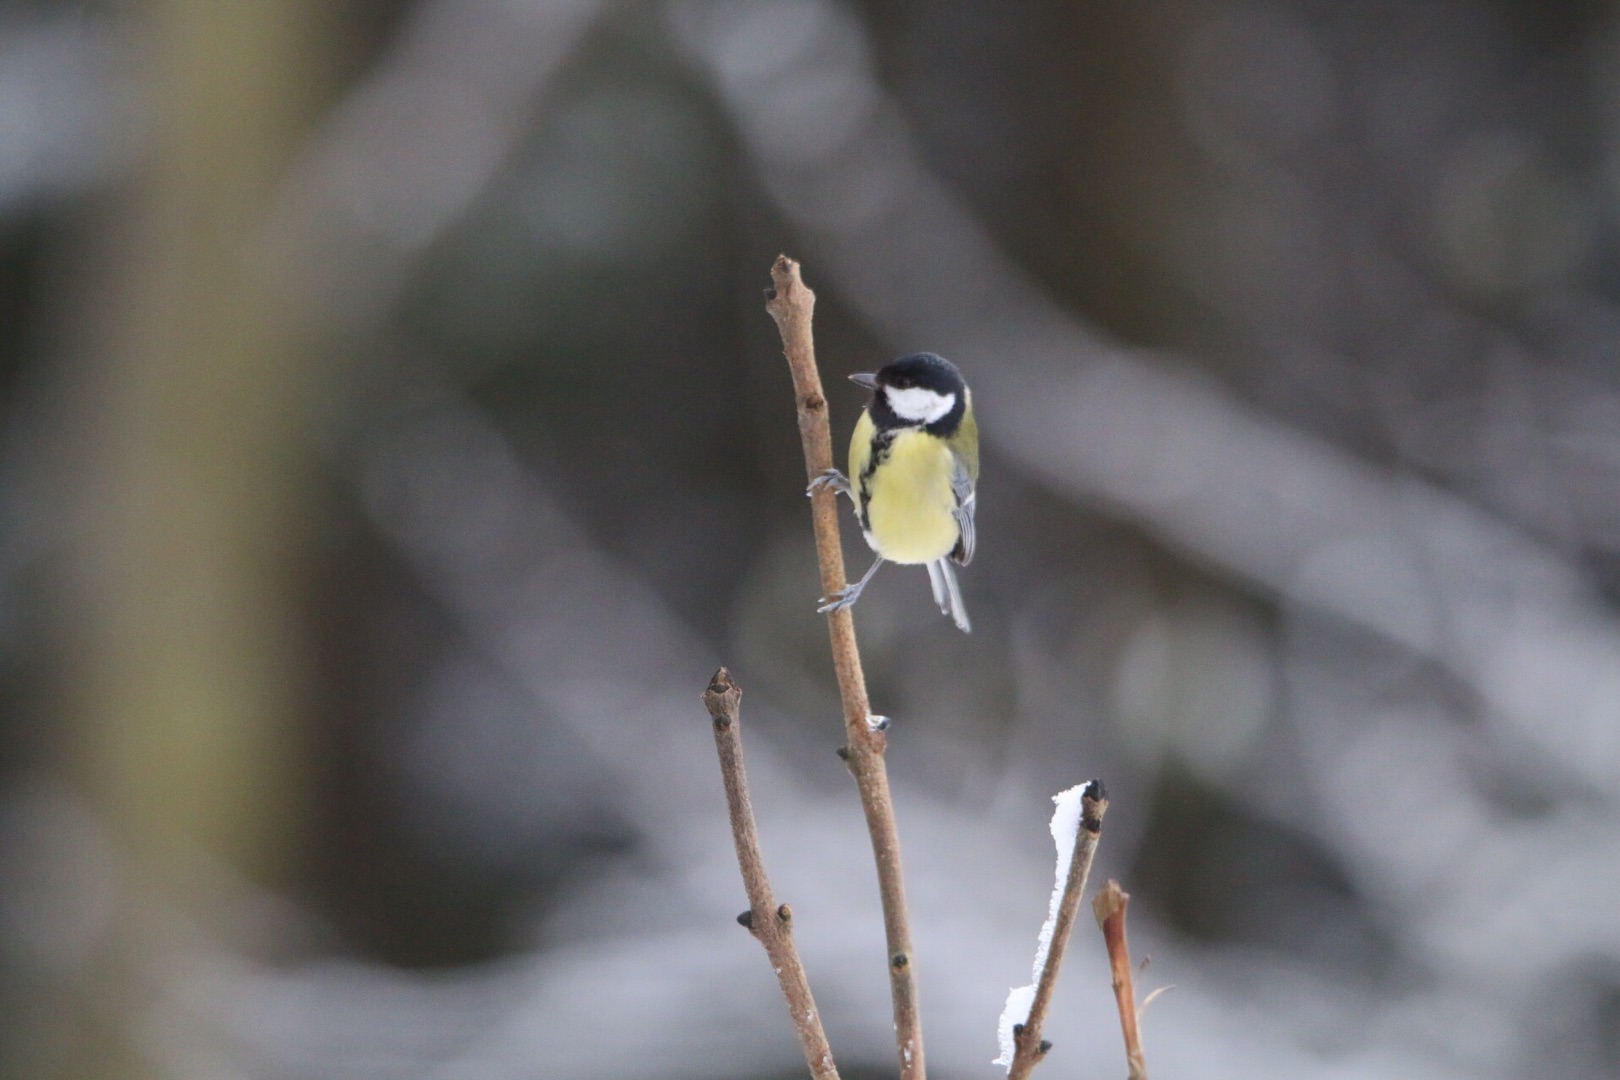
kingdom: Animalia
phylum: Chordata
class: Aves
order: Passeriformes
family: Paridae
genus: Parus
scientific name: Parus major
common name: Musvit
